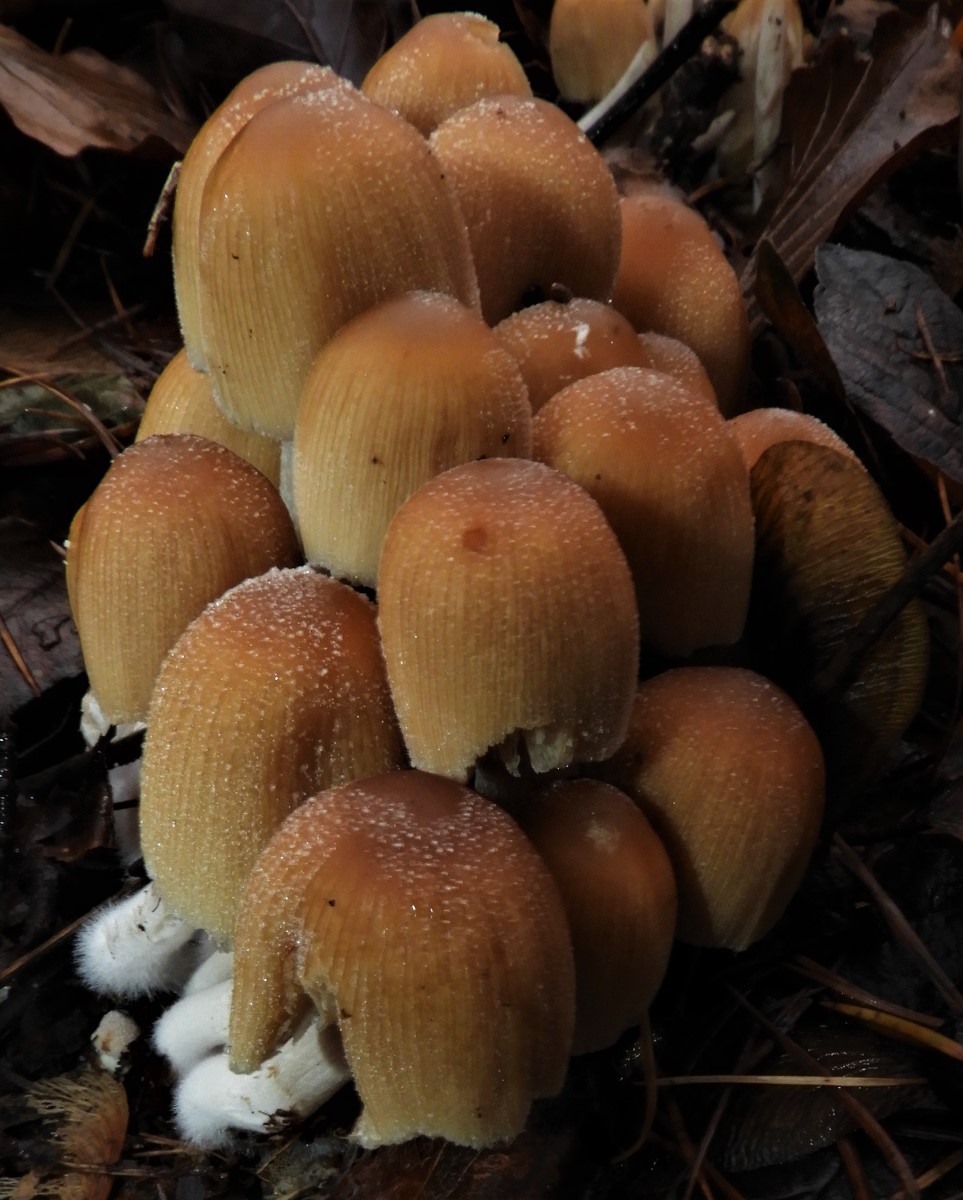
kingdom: Fungi
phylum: Basidiomycota
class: Agaricomycetes
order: Agaricales
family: Psathyrellaceae
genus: Coprinellus
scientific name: Coprinellus micaceus
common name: glimmer-blækhat
